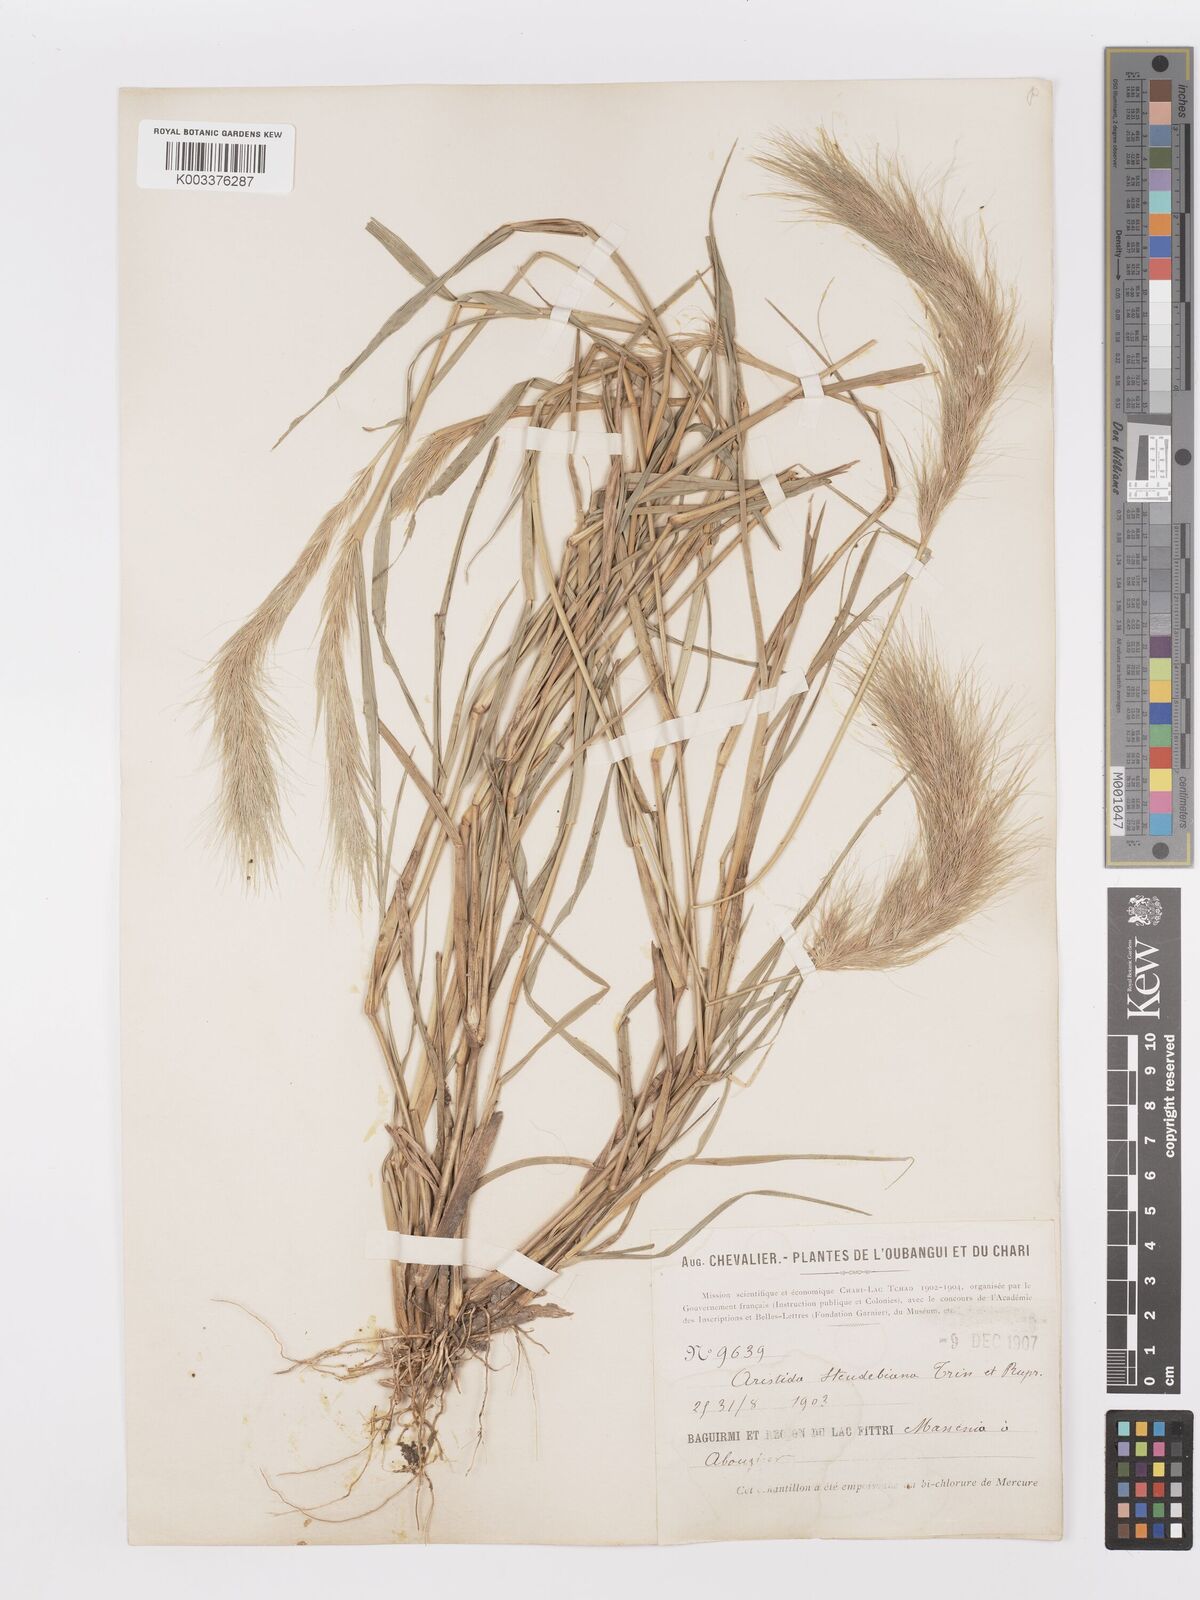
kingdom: Plantae
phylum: Tracheophyta
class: Liliopsida
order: Poales
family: Poaceae
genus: Aristida
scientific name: Aristida hordeacea
